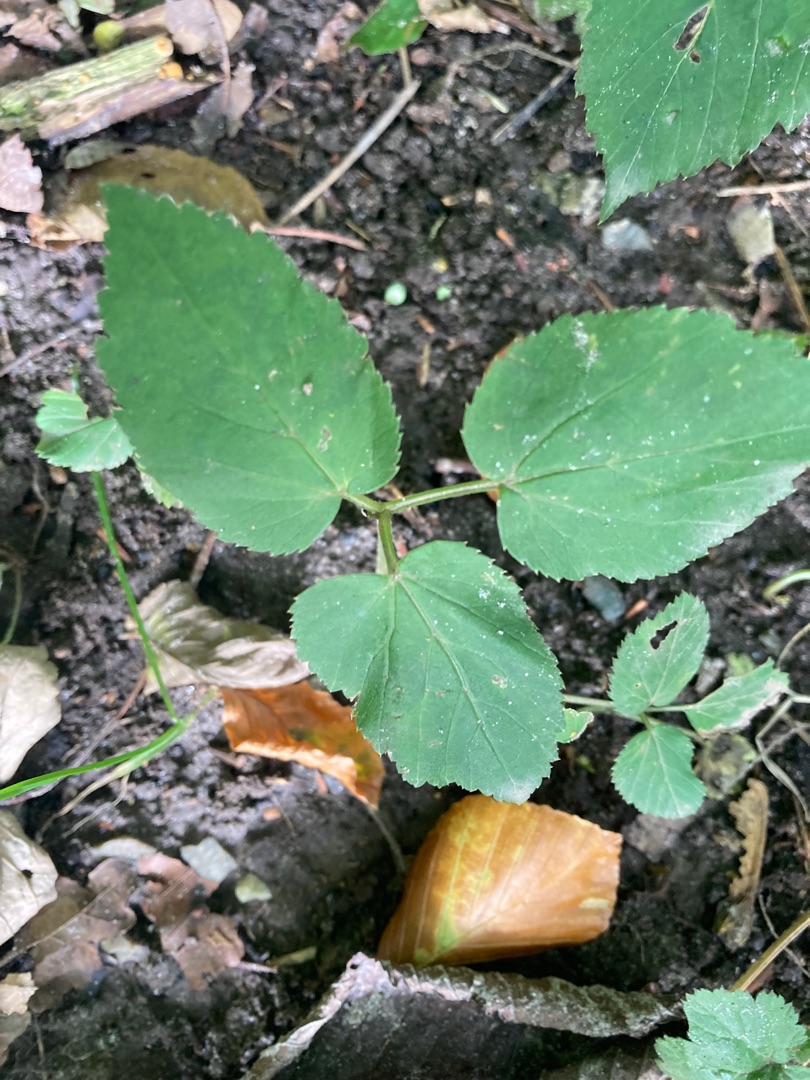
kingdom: Plantae
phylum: Tracheophyta
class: Magnoliopsida
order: Apiales
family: Apiaceae
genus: Aegopodium
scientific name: Aegopodium podagraria
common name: Skvalderkål
